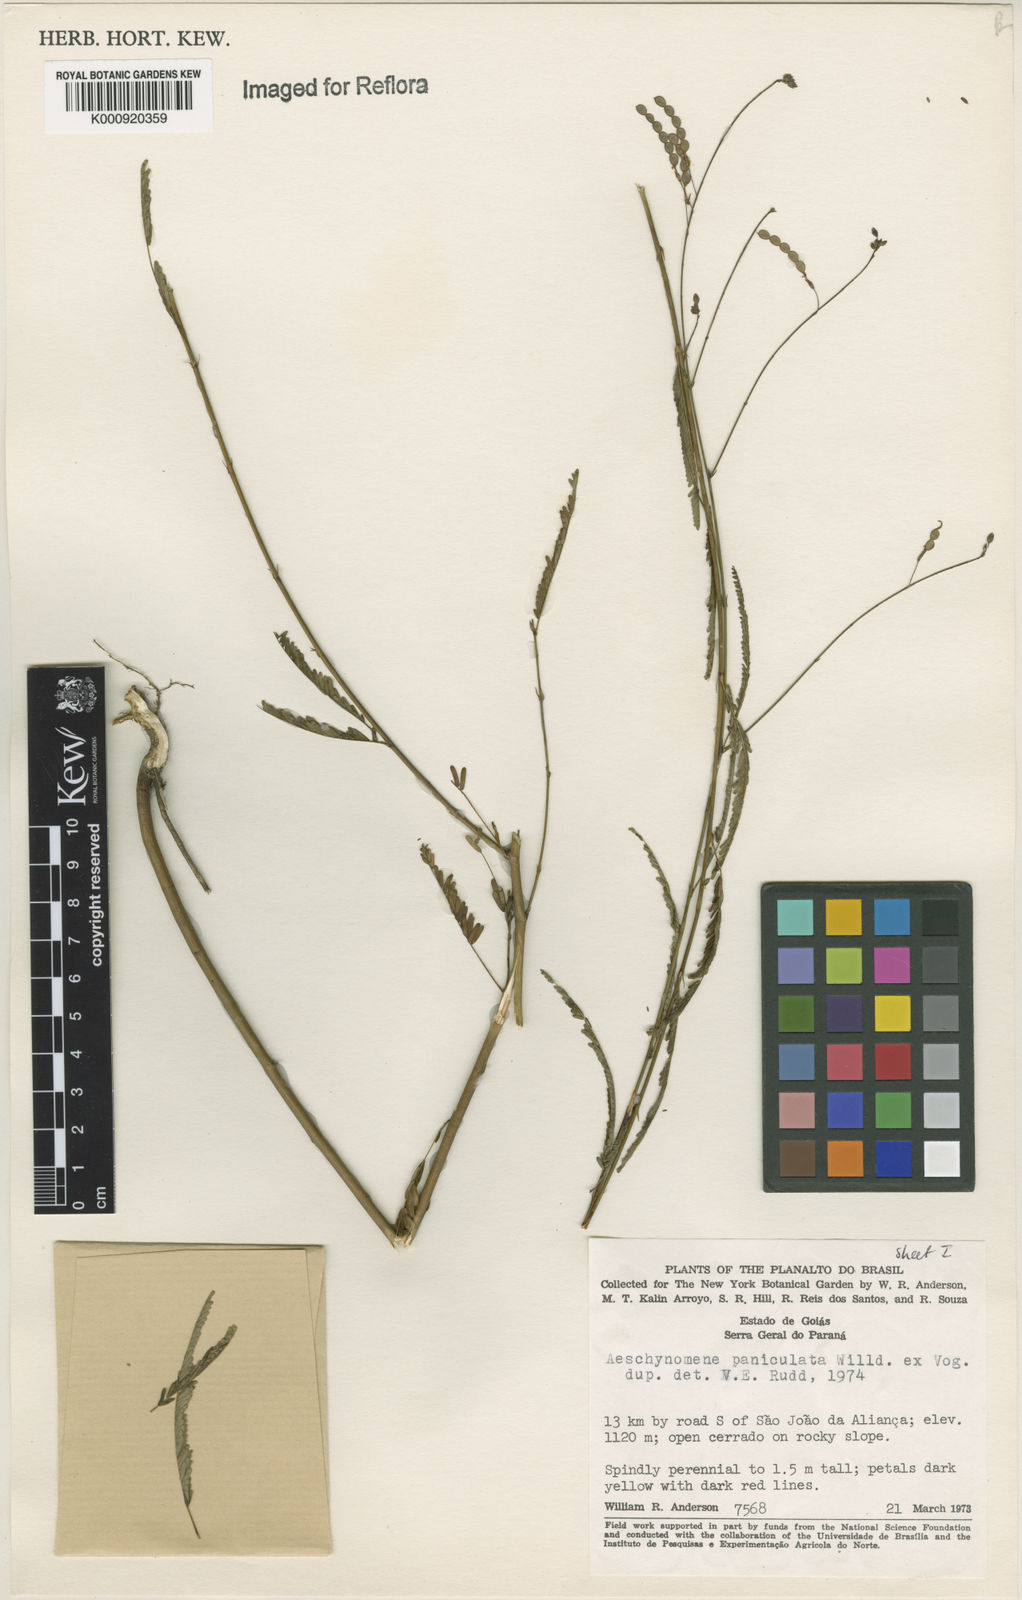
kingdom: Plantae
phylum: Tracheophyta
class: Magnoliopsida
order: Fabales
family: Fabaceae
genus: Ctenodon
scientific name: Ctenodon paniculatus
